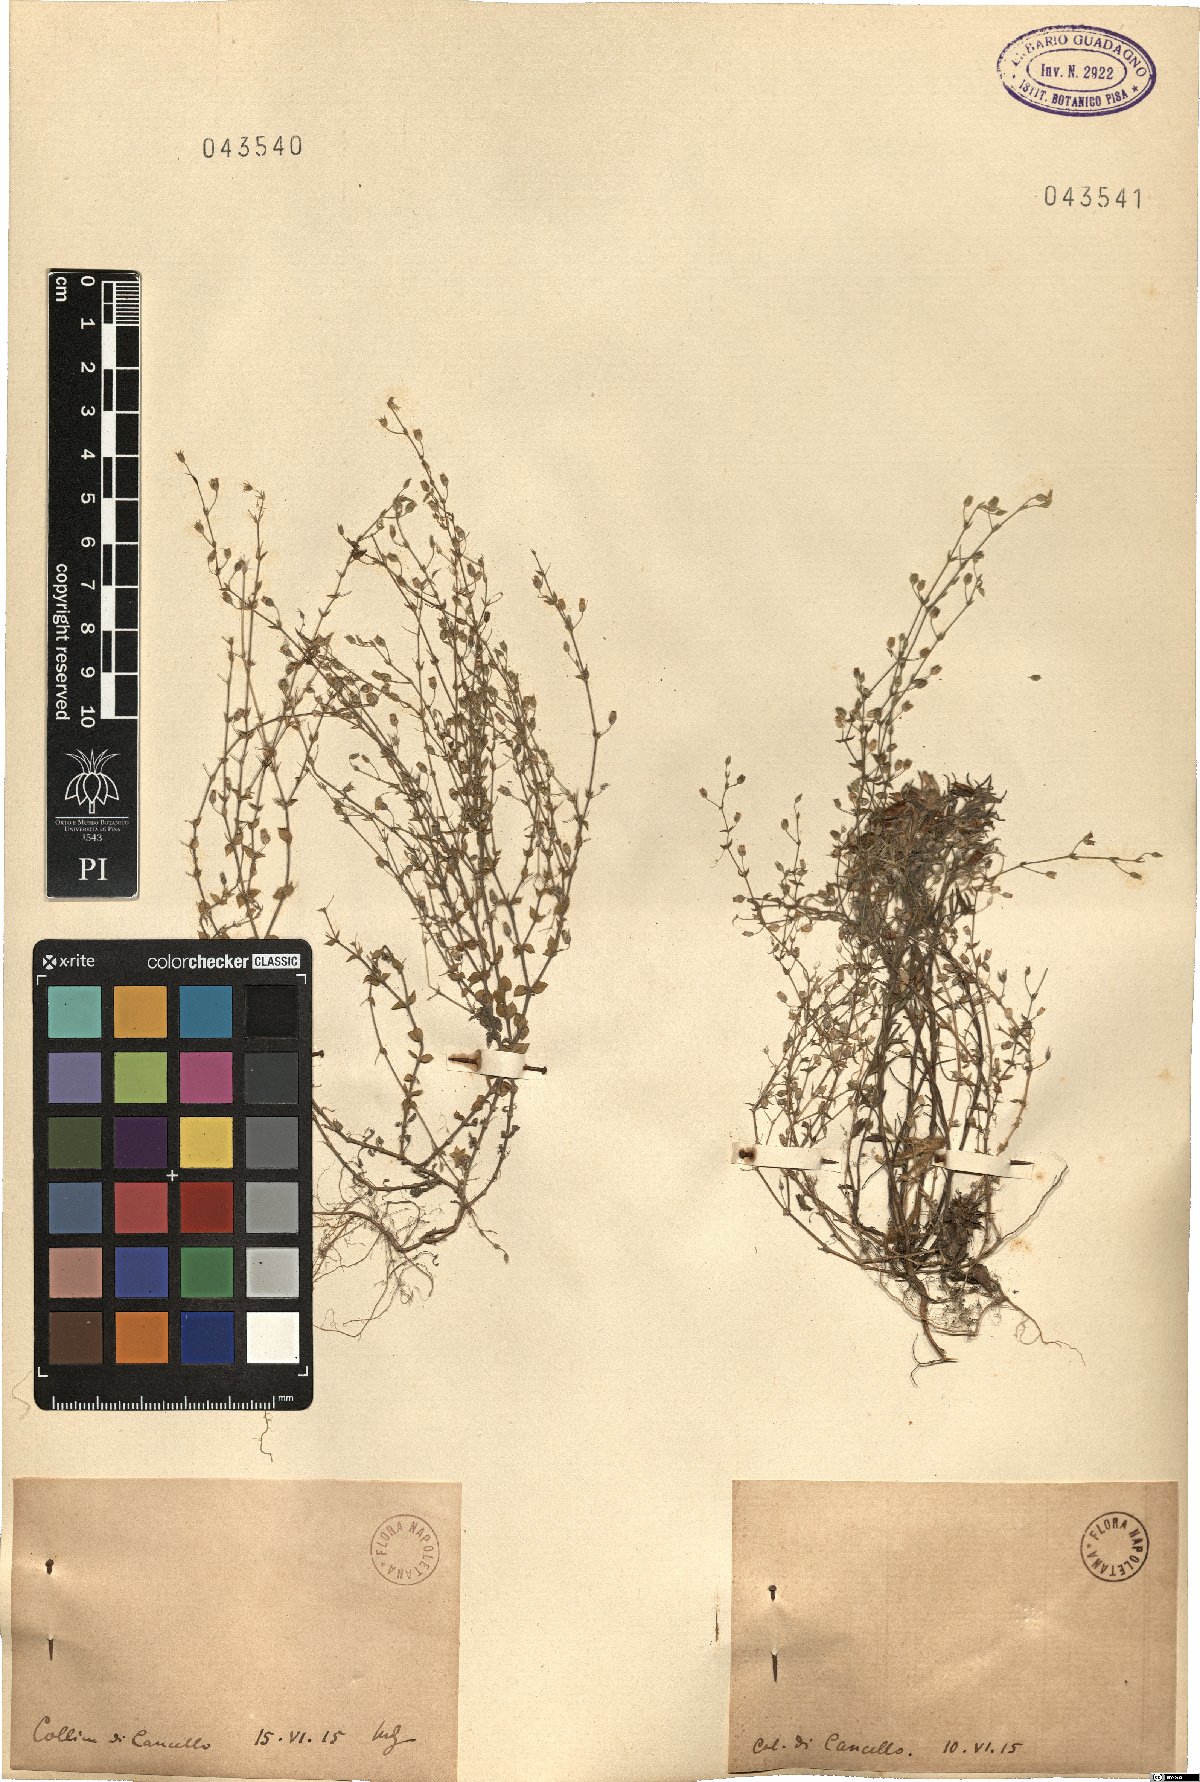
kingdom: Plantae
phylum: Tracheophyta
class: Magnoliopsida
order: Caryophyllales
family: Caryophyllaceae
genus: Arenaria
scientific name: Arenaria
